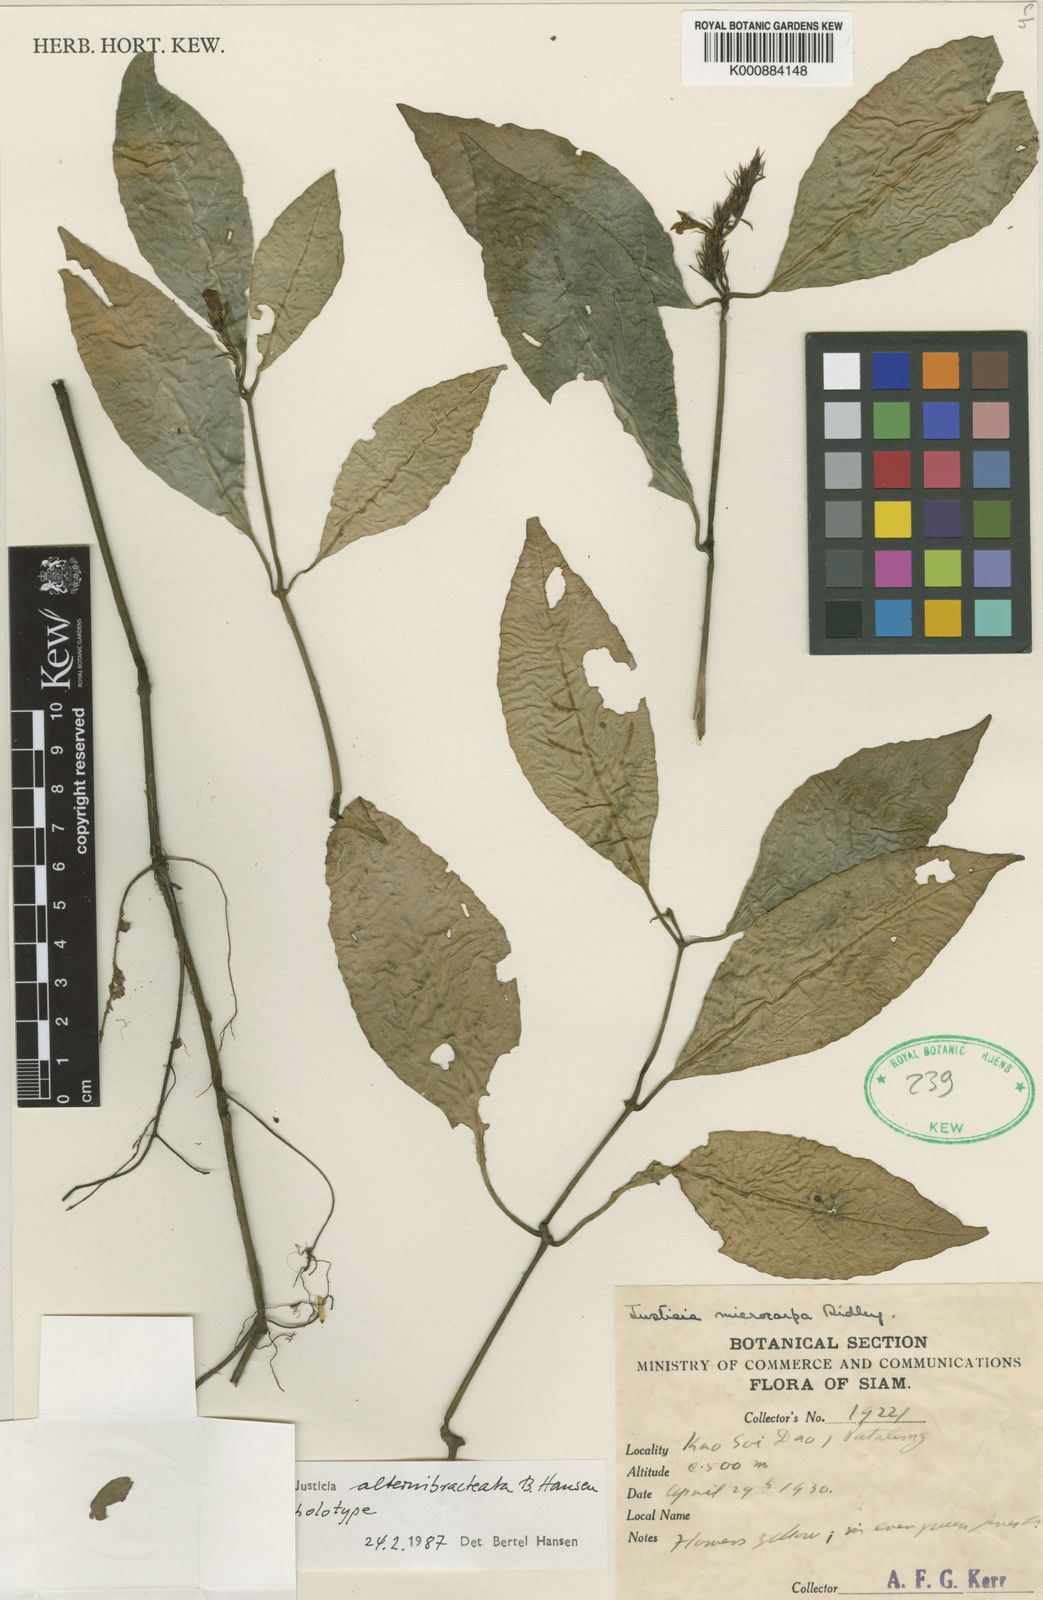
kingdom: Plantae
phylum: Tracheophyta
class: Magnoliopsida
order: Lamiales
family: Acanthaceae
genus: Justicia
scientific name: Justicia
